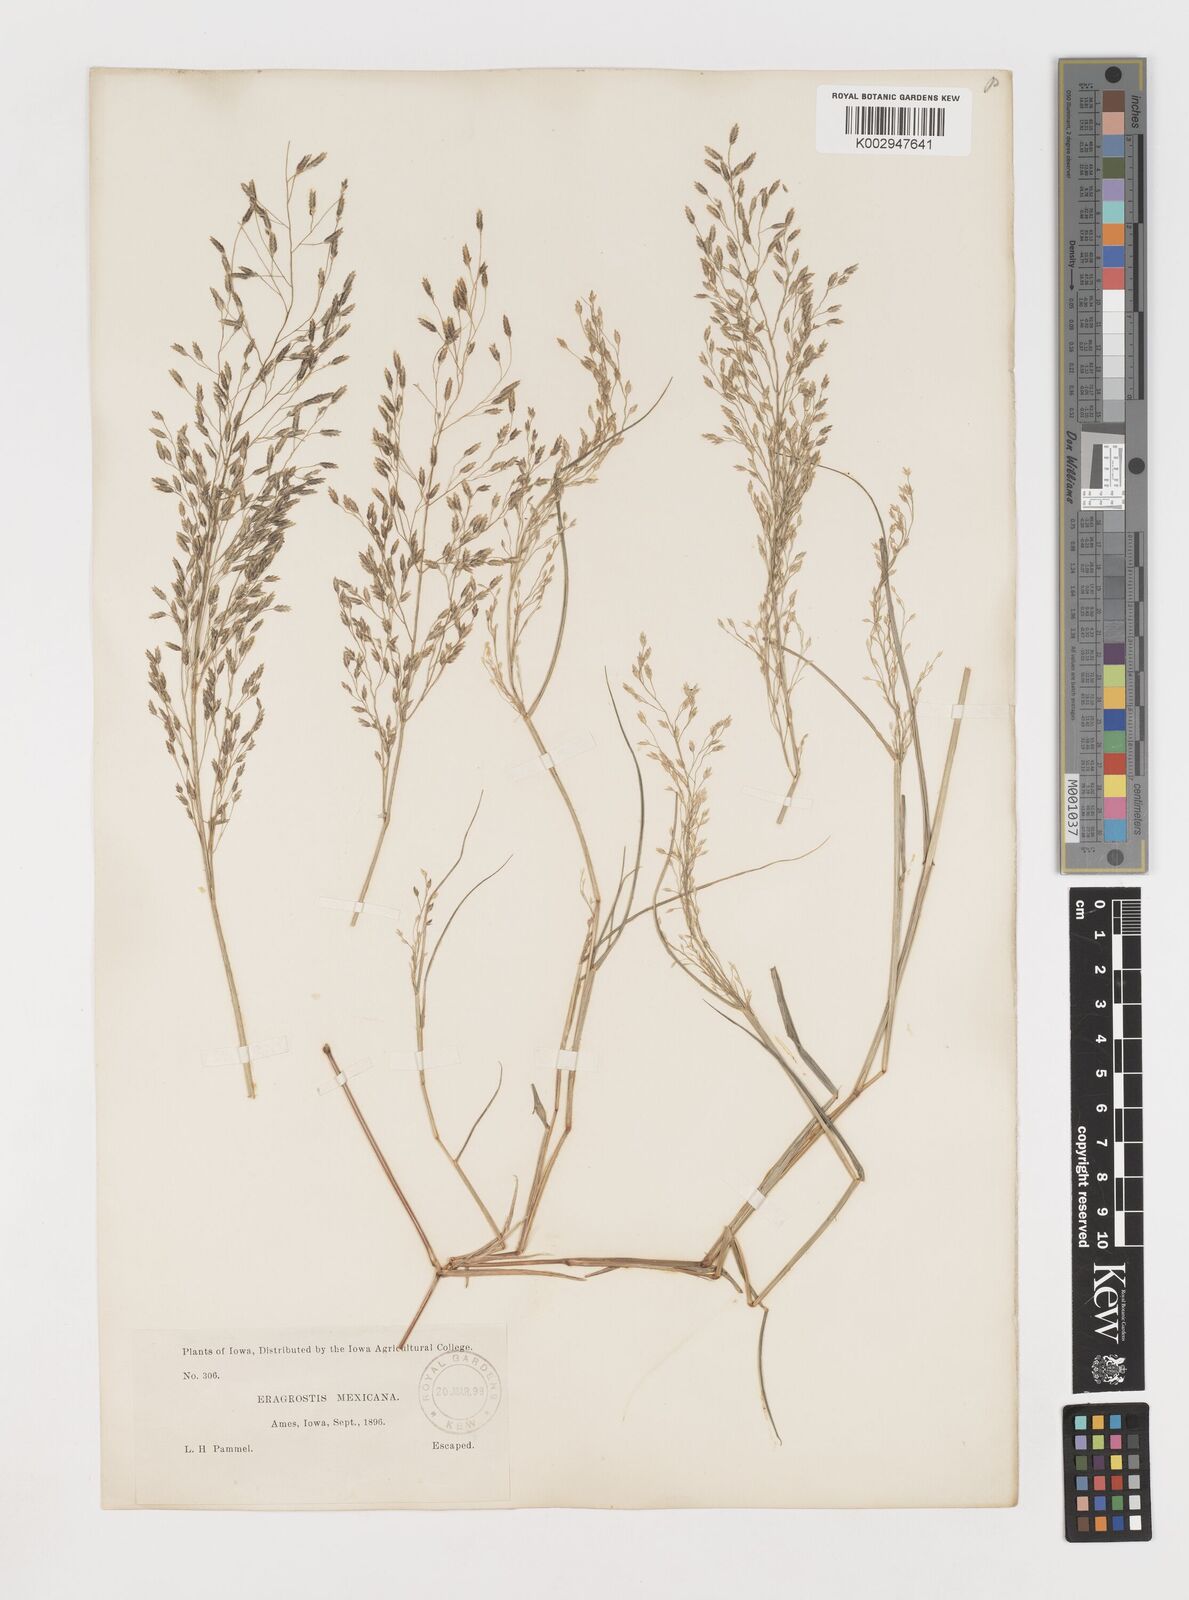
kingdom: Plantae
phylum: Tracheophyta
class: Liliopsida
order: Poales
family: Poaceae
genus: Eragrostis
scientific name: Eragrostis mexicana
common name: Mexican love grass
